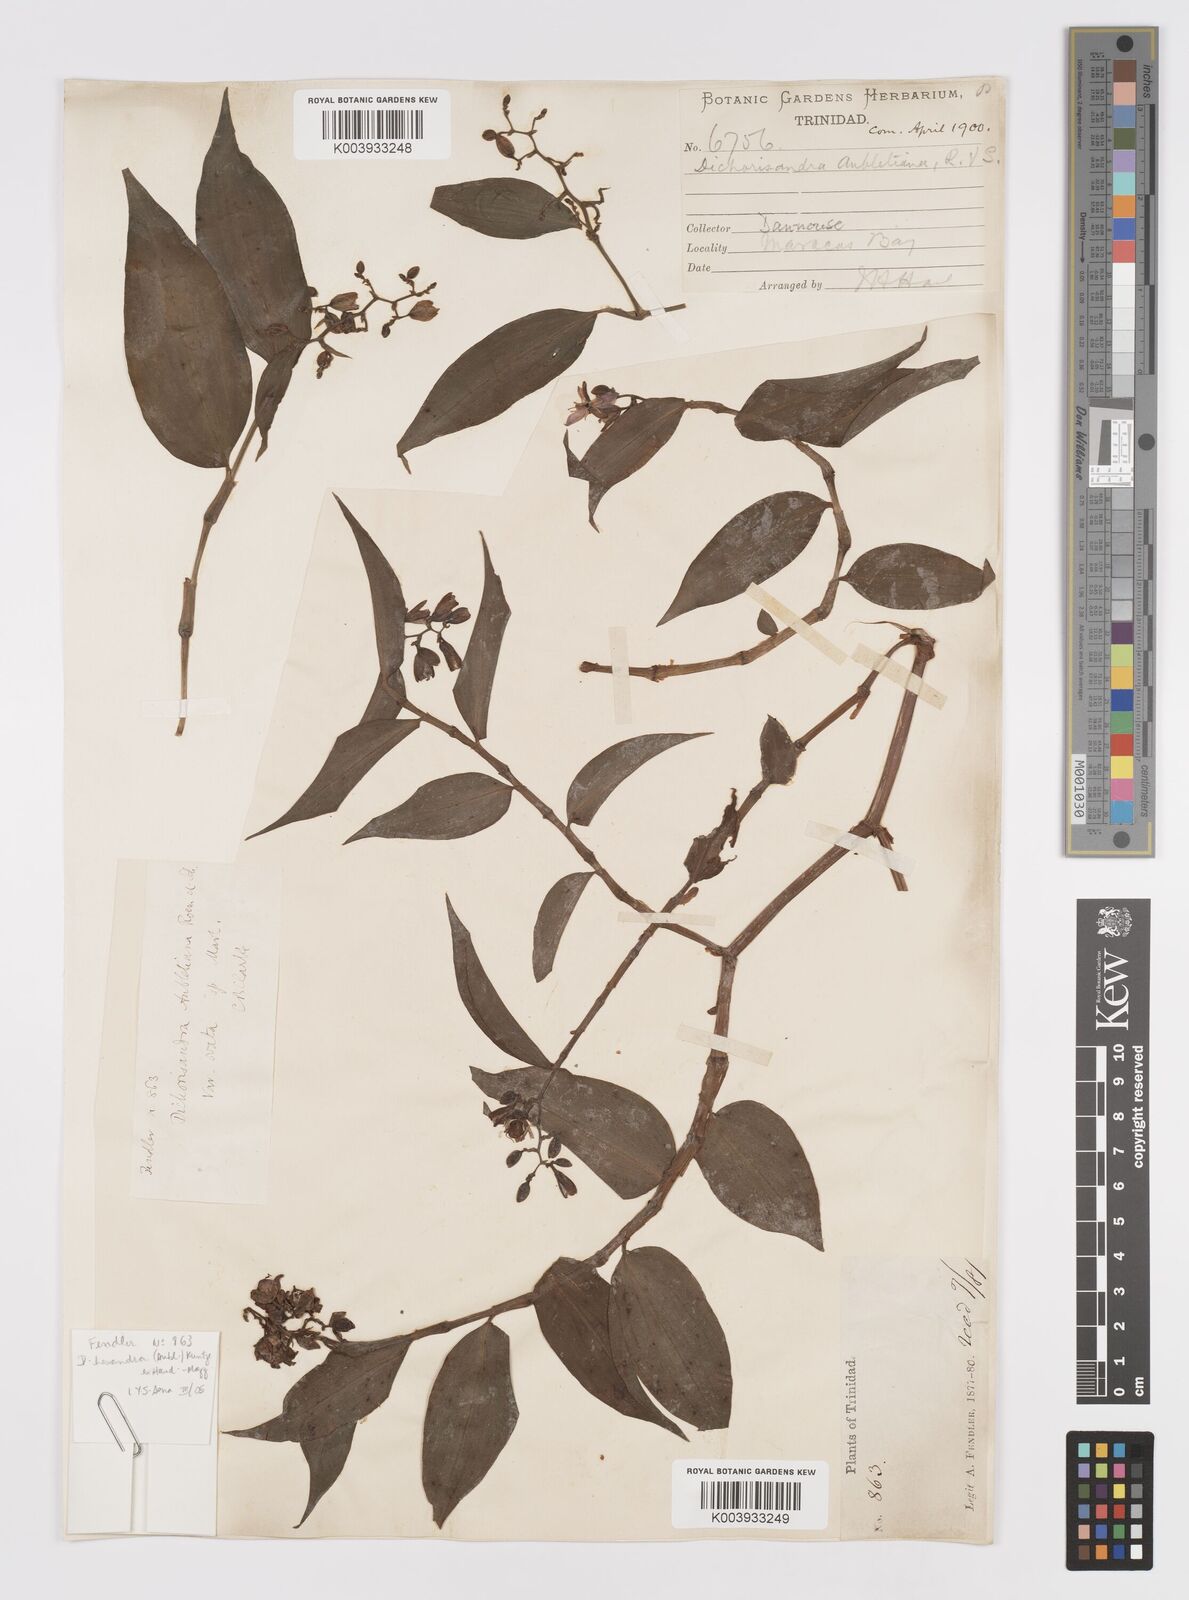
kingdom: Plantae
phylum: Tracheophyta
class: Liliopsida
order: Commelinales
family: Commelinaceae
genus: Dichorisandra
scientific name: Dichorisandra hexandra
